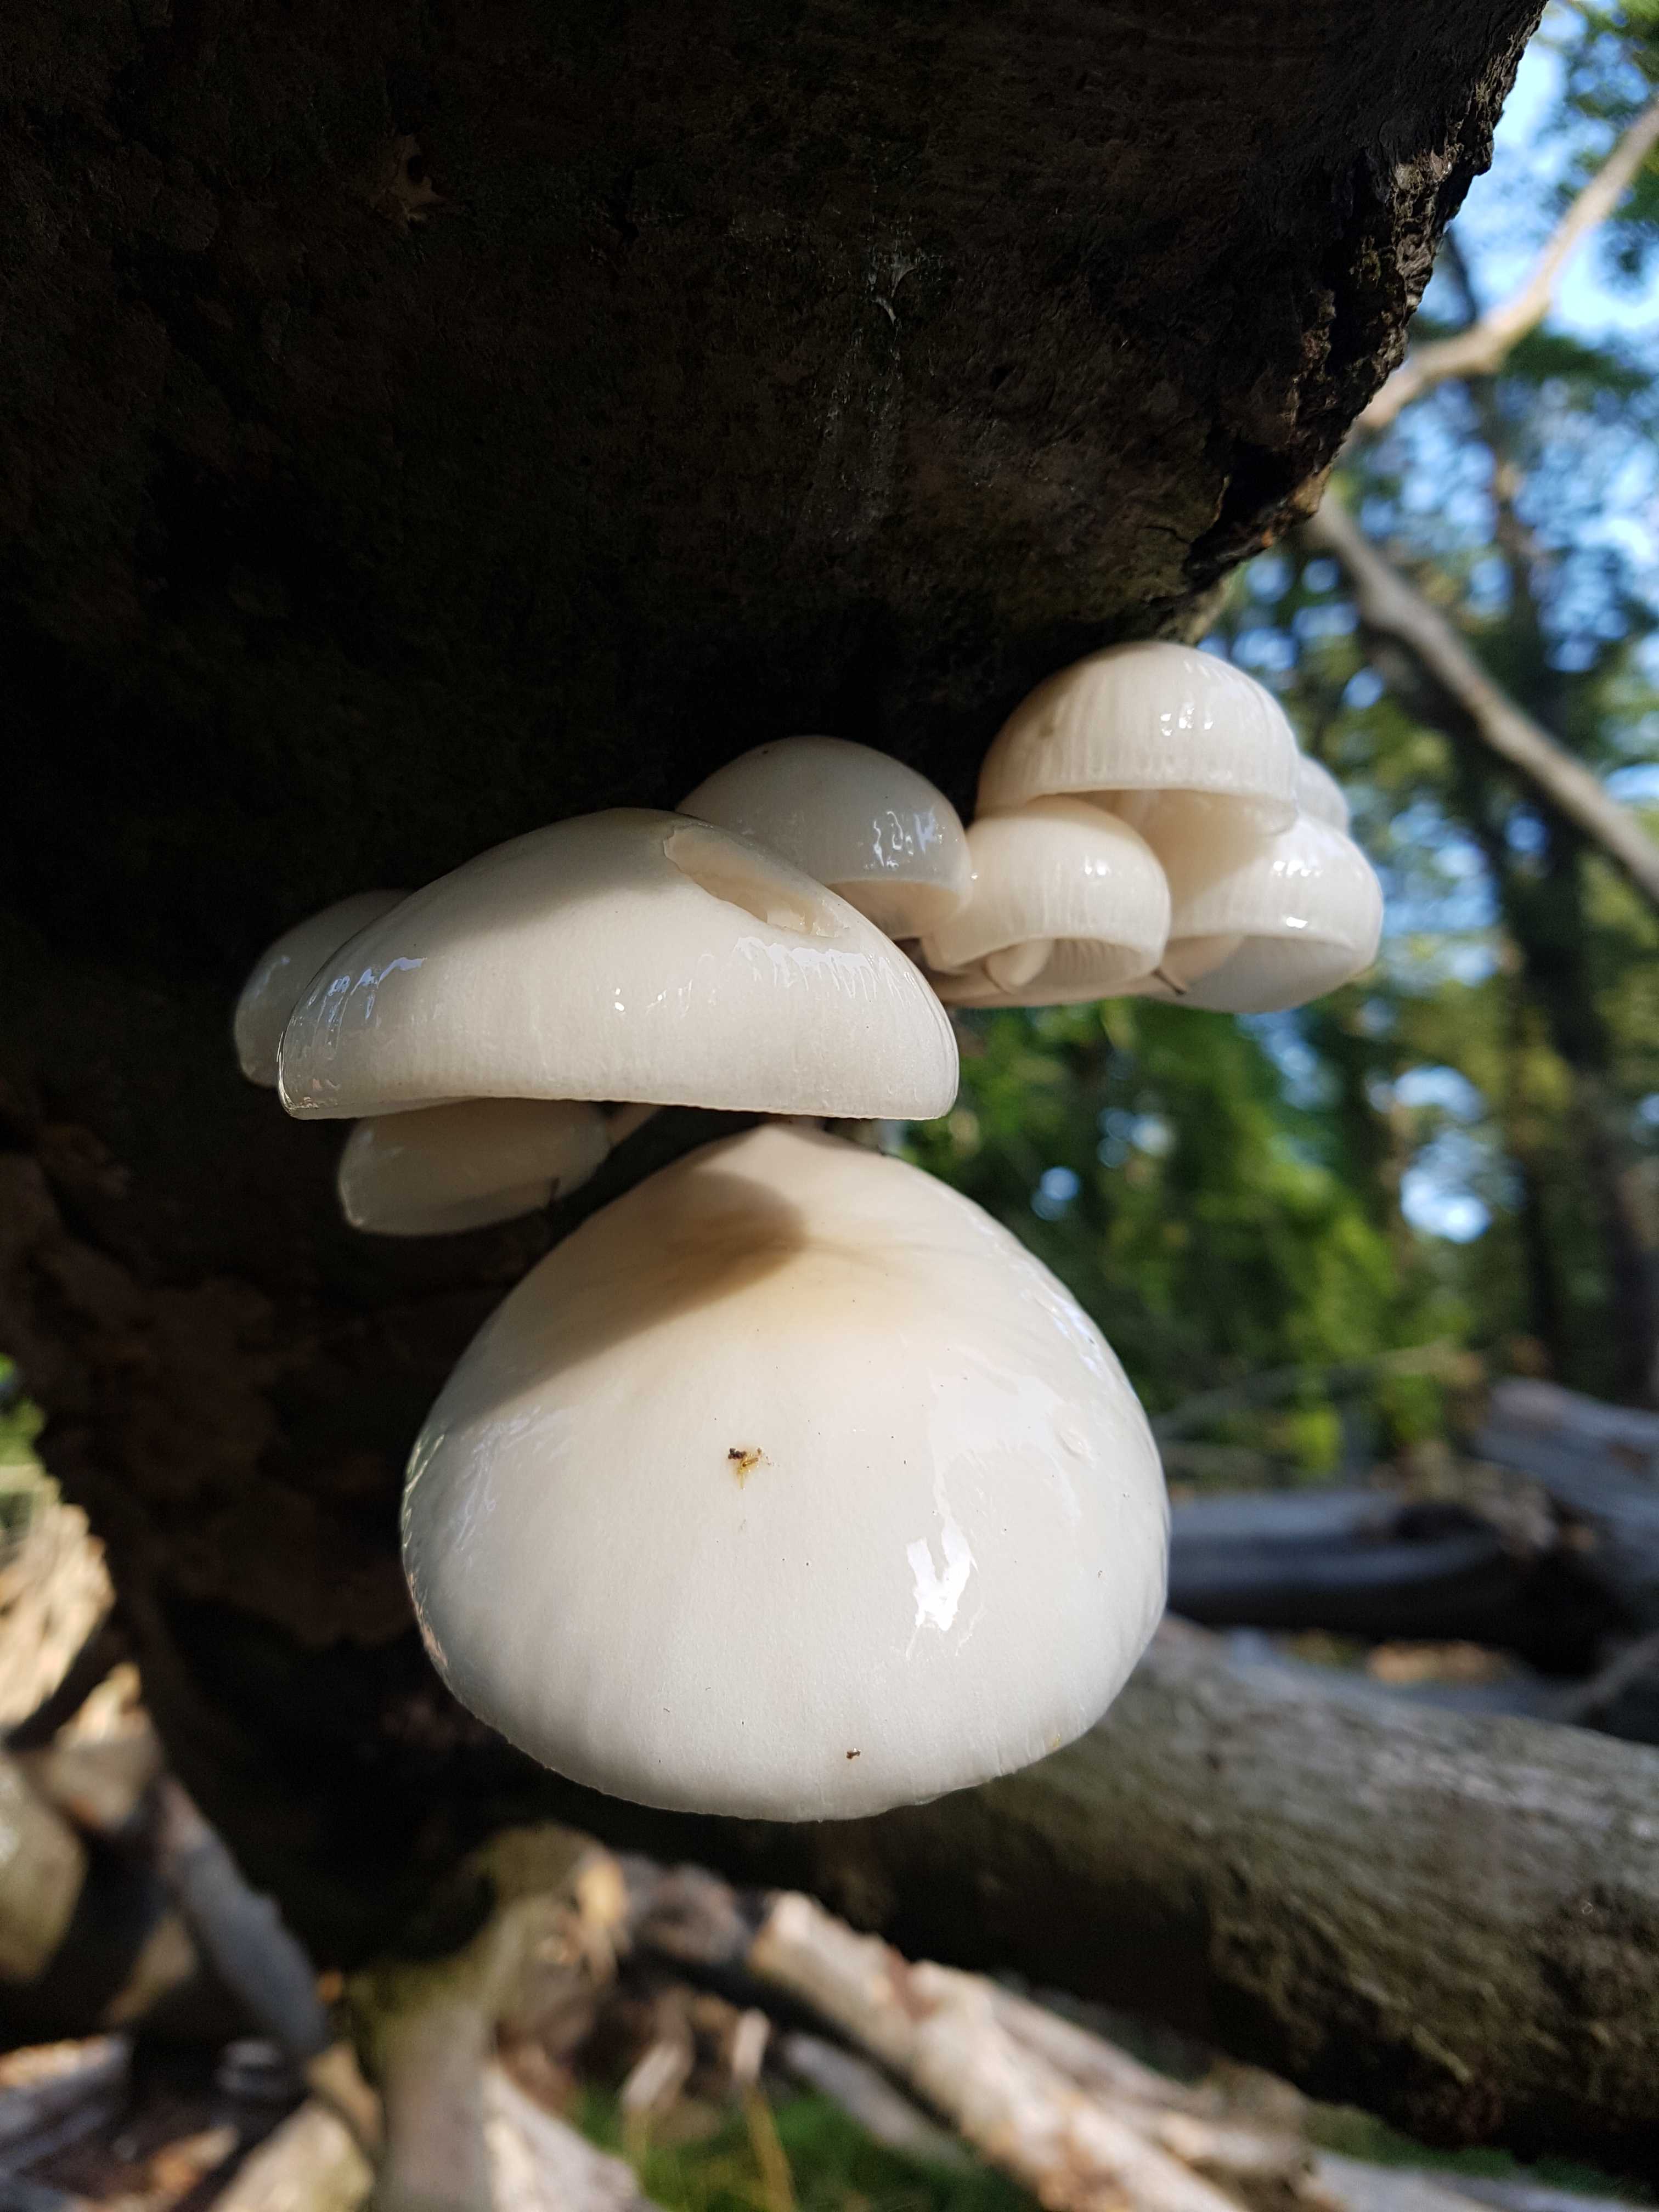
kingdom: Fungi
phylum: Basidiomycota
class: Agaricomycetes
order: Agaricales
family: Physalacriaceae
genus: Mucidula
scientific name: Mucidula mucida
